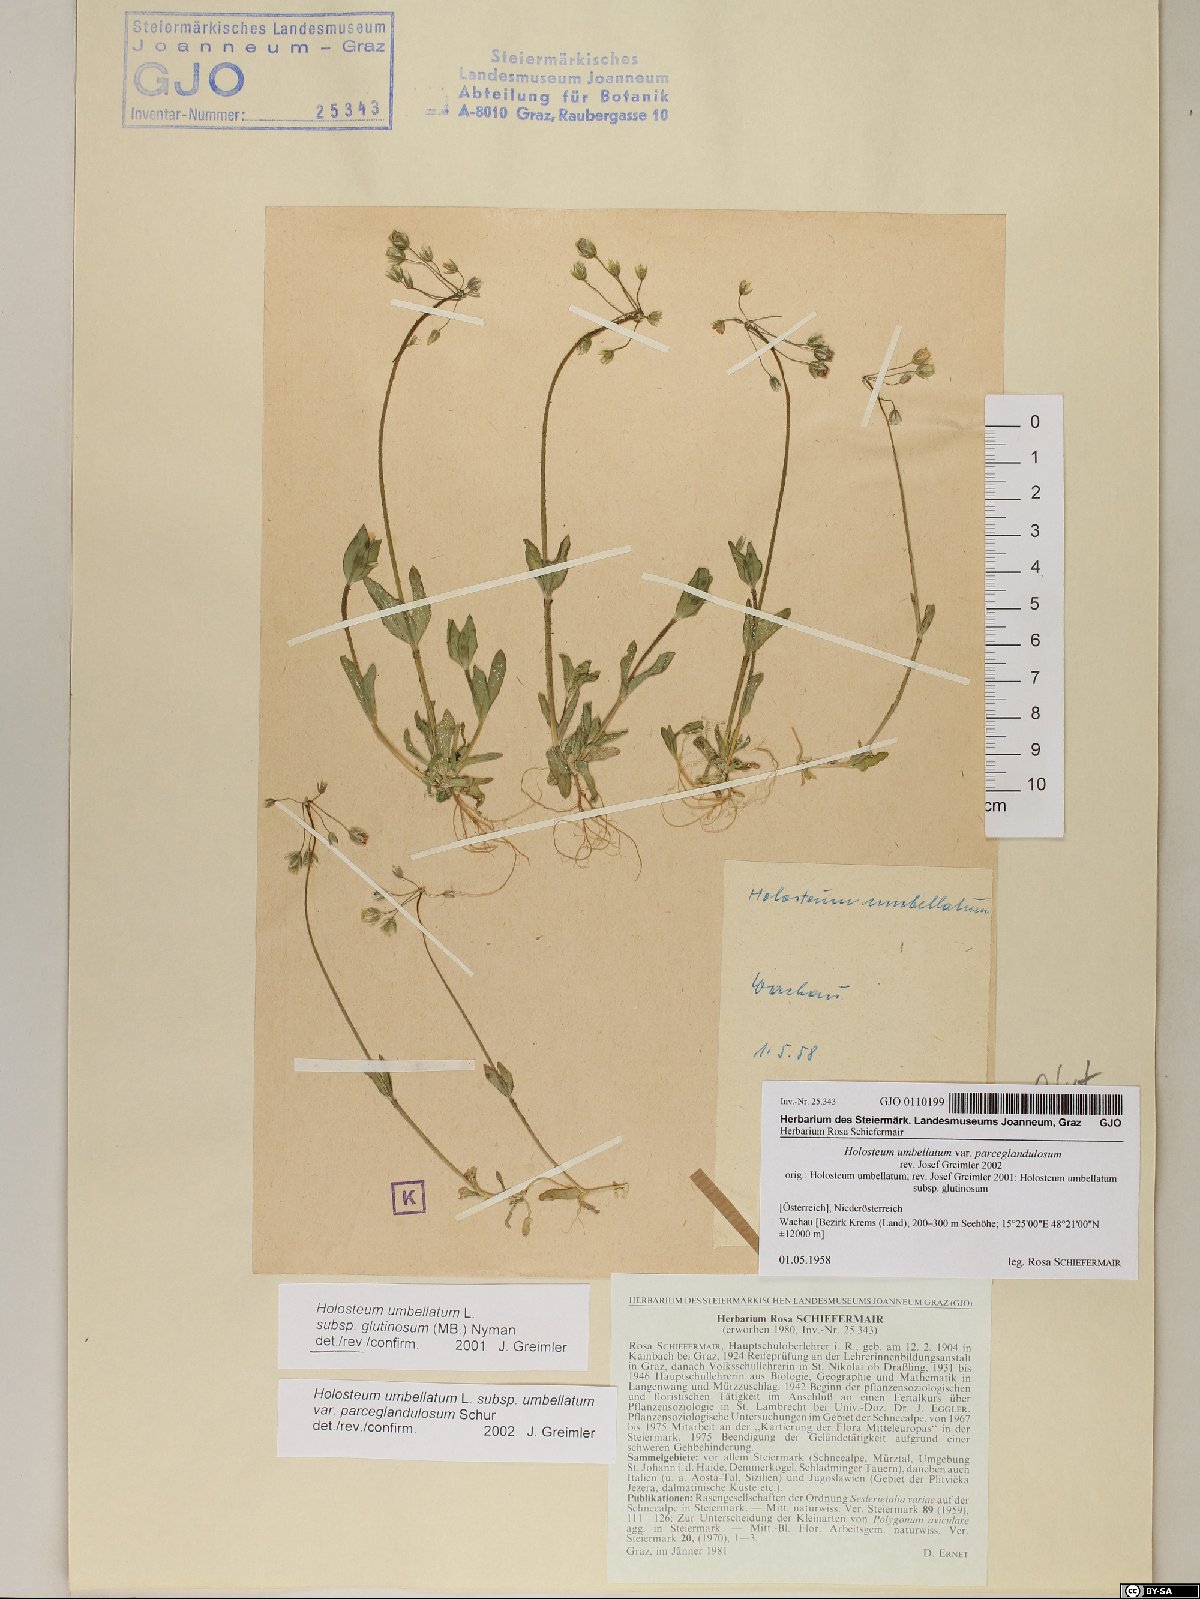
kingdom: Plantae
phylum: Tracheophyta
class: Magnoliopsida
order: Caryophyllales
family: Caryophyllaceae
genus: Holosteum
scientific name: Holosteum umbellatum
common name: Jagged chickweed
